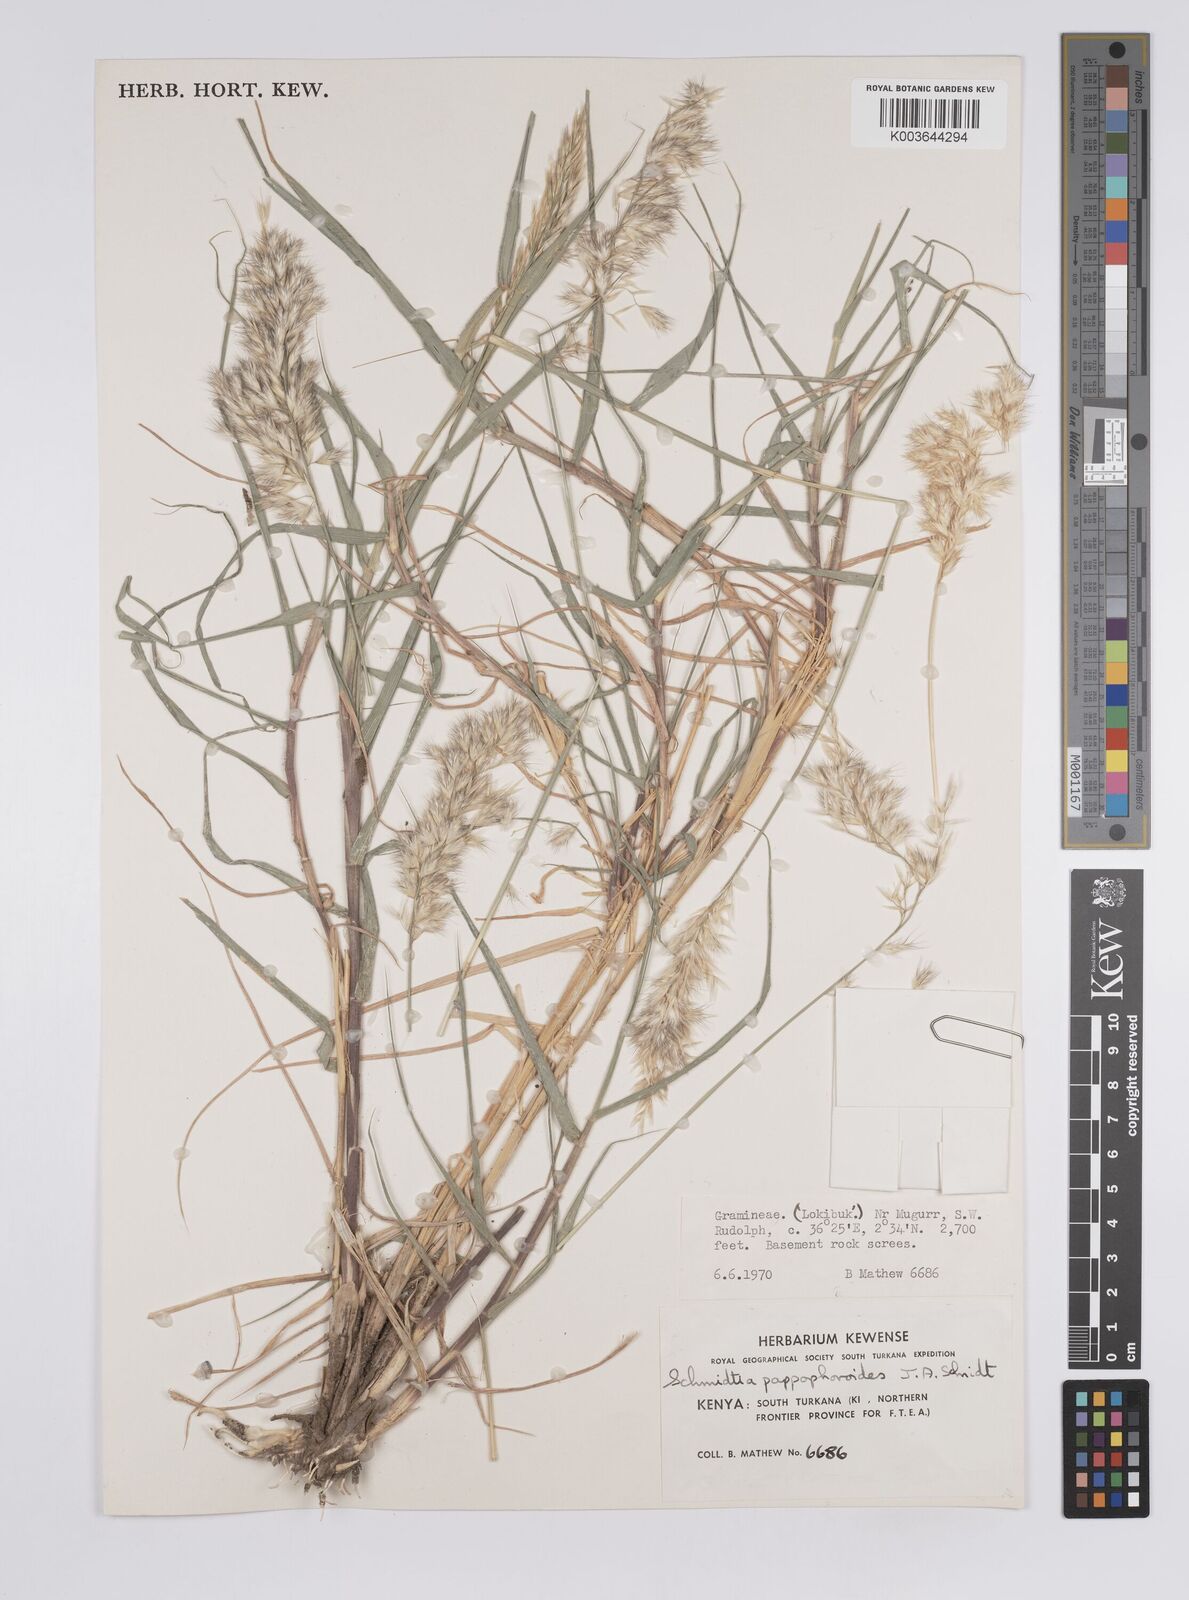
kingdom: Plantae
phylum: Tracheophyta
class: Liliopsida
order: Poales
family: Poaceae
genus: Schmidtia
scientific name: Schmidtia pappophoroides
